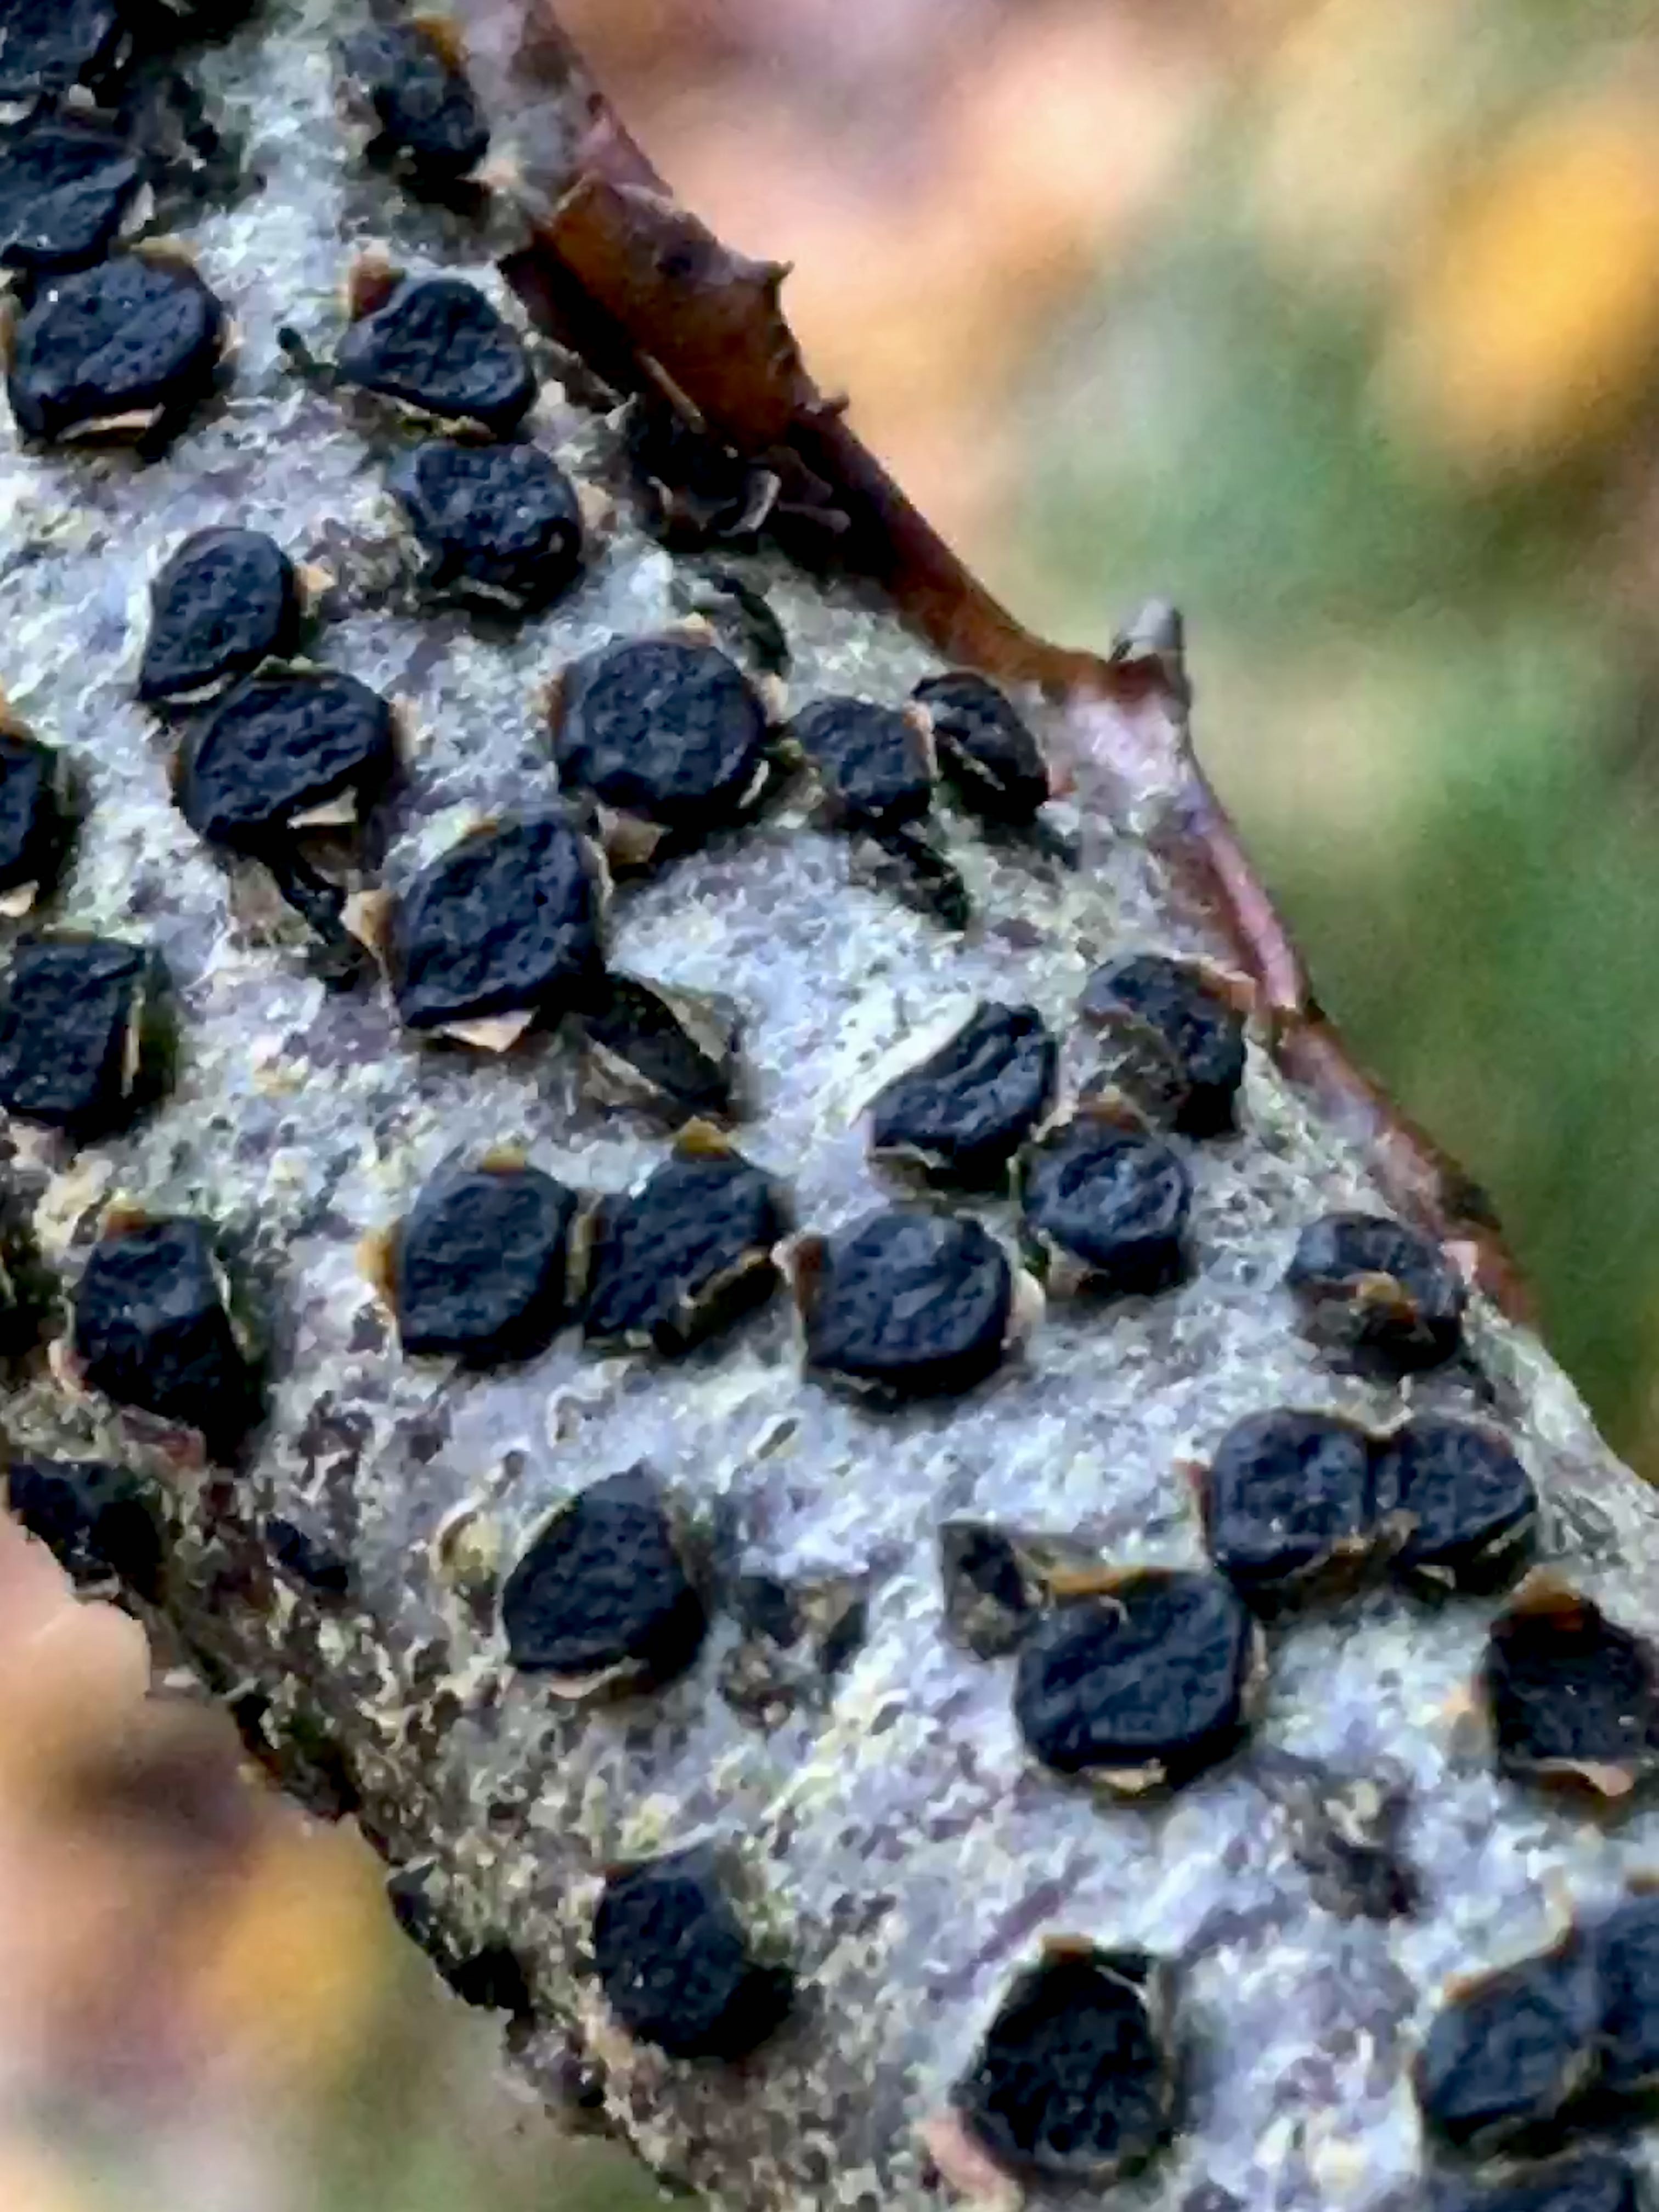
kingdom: Fungi
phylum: Ascomycota
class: Sordariomycetes
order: Xylariales
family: Diatrypaceae
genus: Diatrype
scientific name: Diatrype disciformis
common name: kant-kulskorpe
